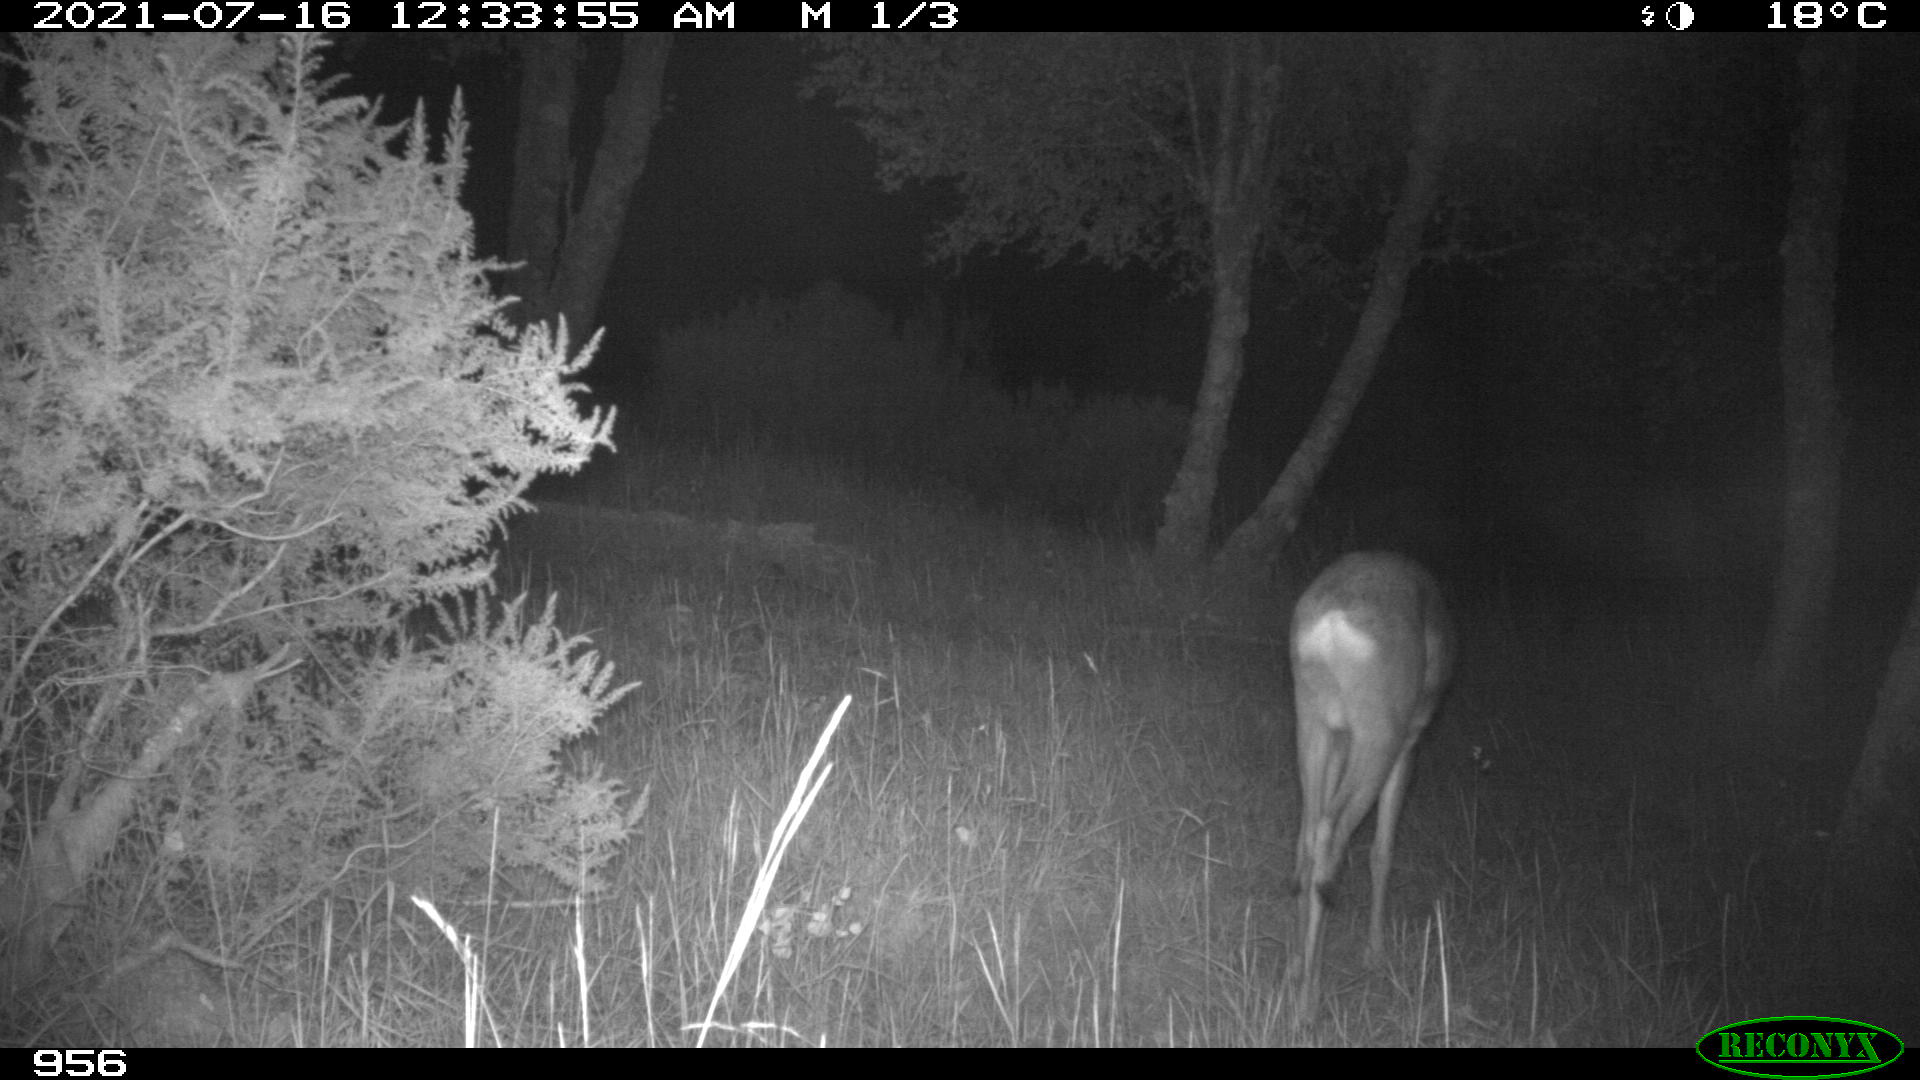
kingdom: Animalia
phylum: Chordata
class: Mammalia
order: Artiodactyla
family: Cervidae
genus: Capreolus
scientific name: Capreolus capreolus
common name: Western roe deer
